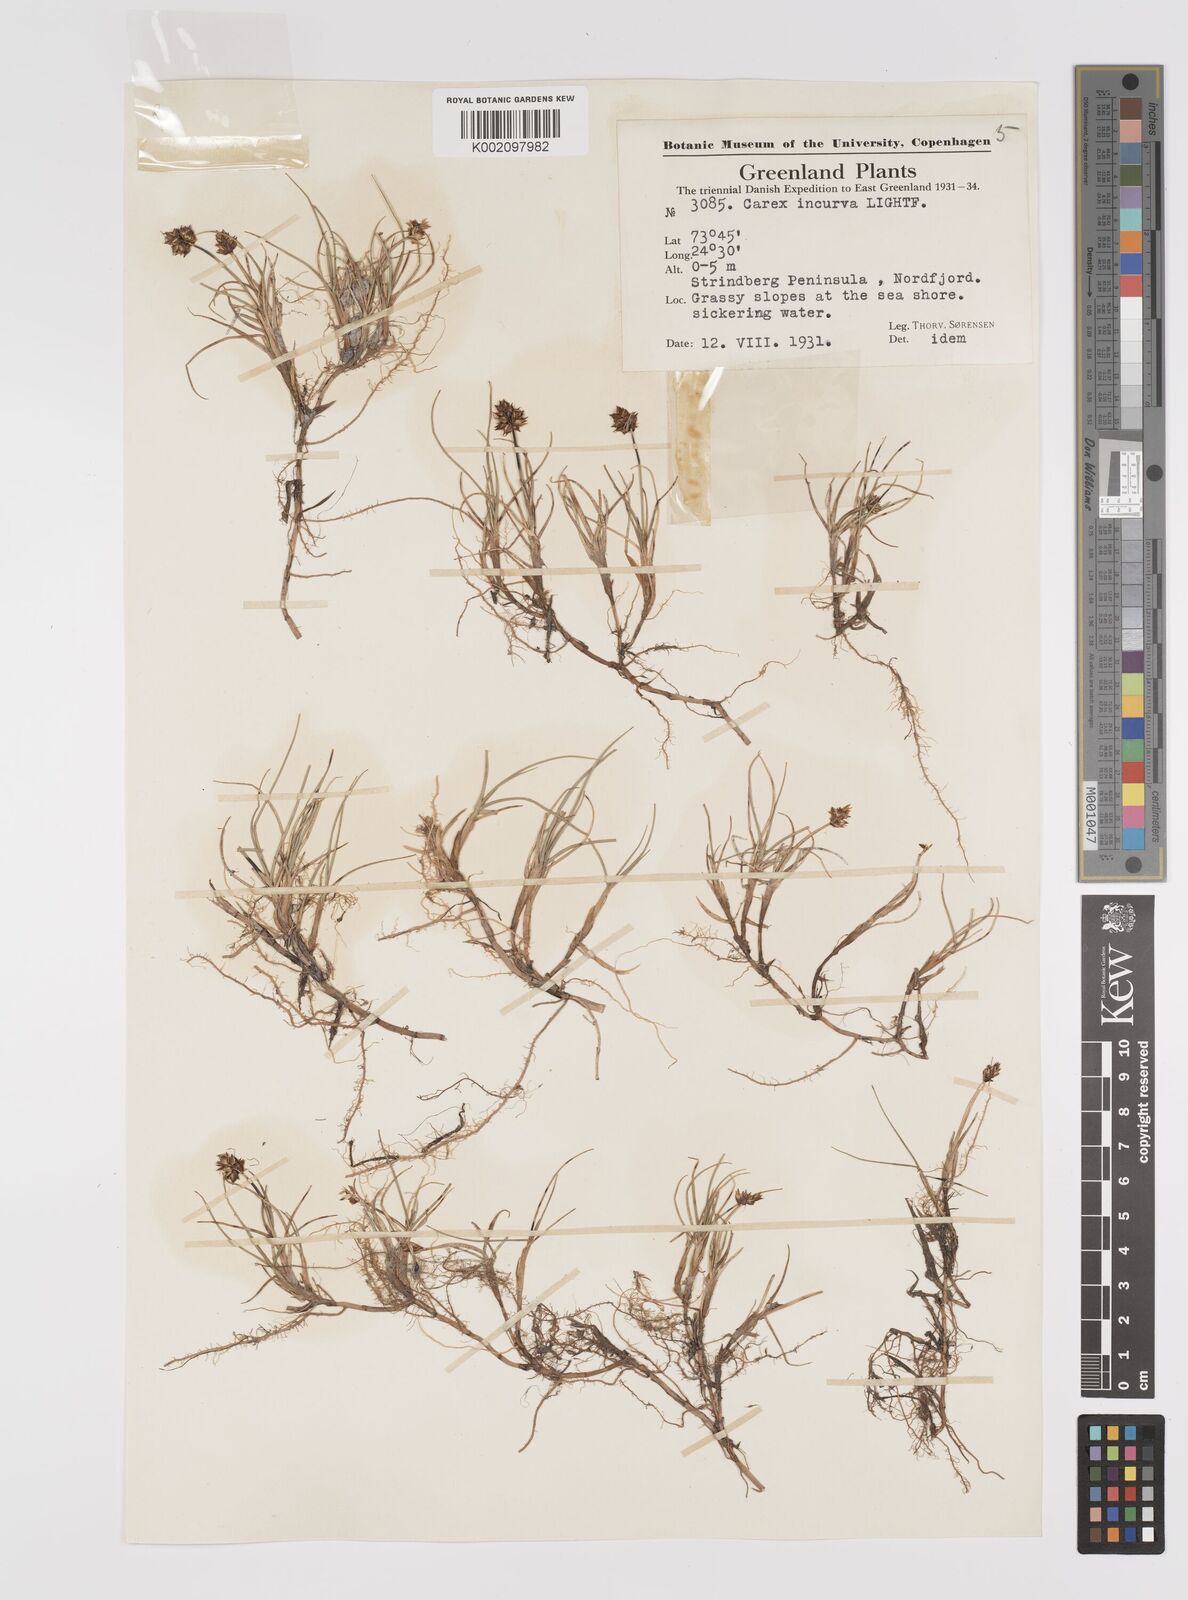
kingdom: Plantae
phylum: Tracheophyta
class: Liliopsida
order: Poales
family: Cyperaceae
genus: Carex
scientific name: Carex maritima
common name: Curved sedge
